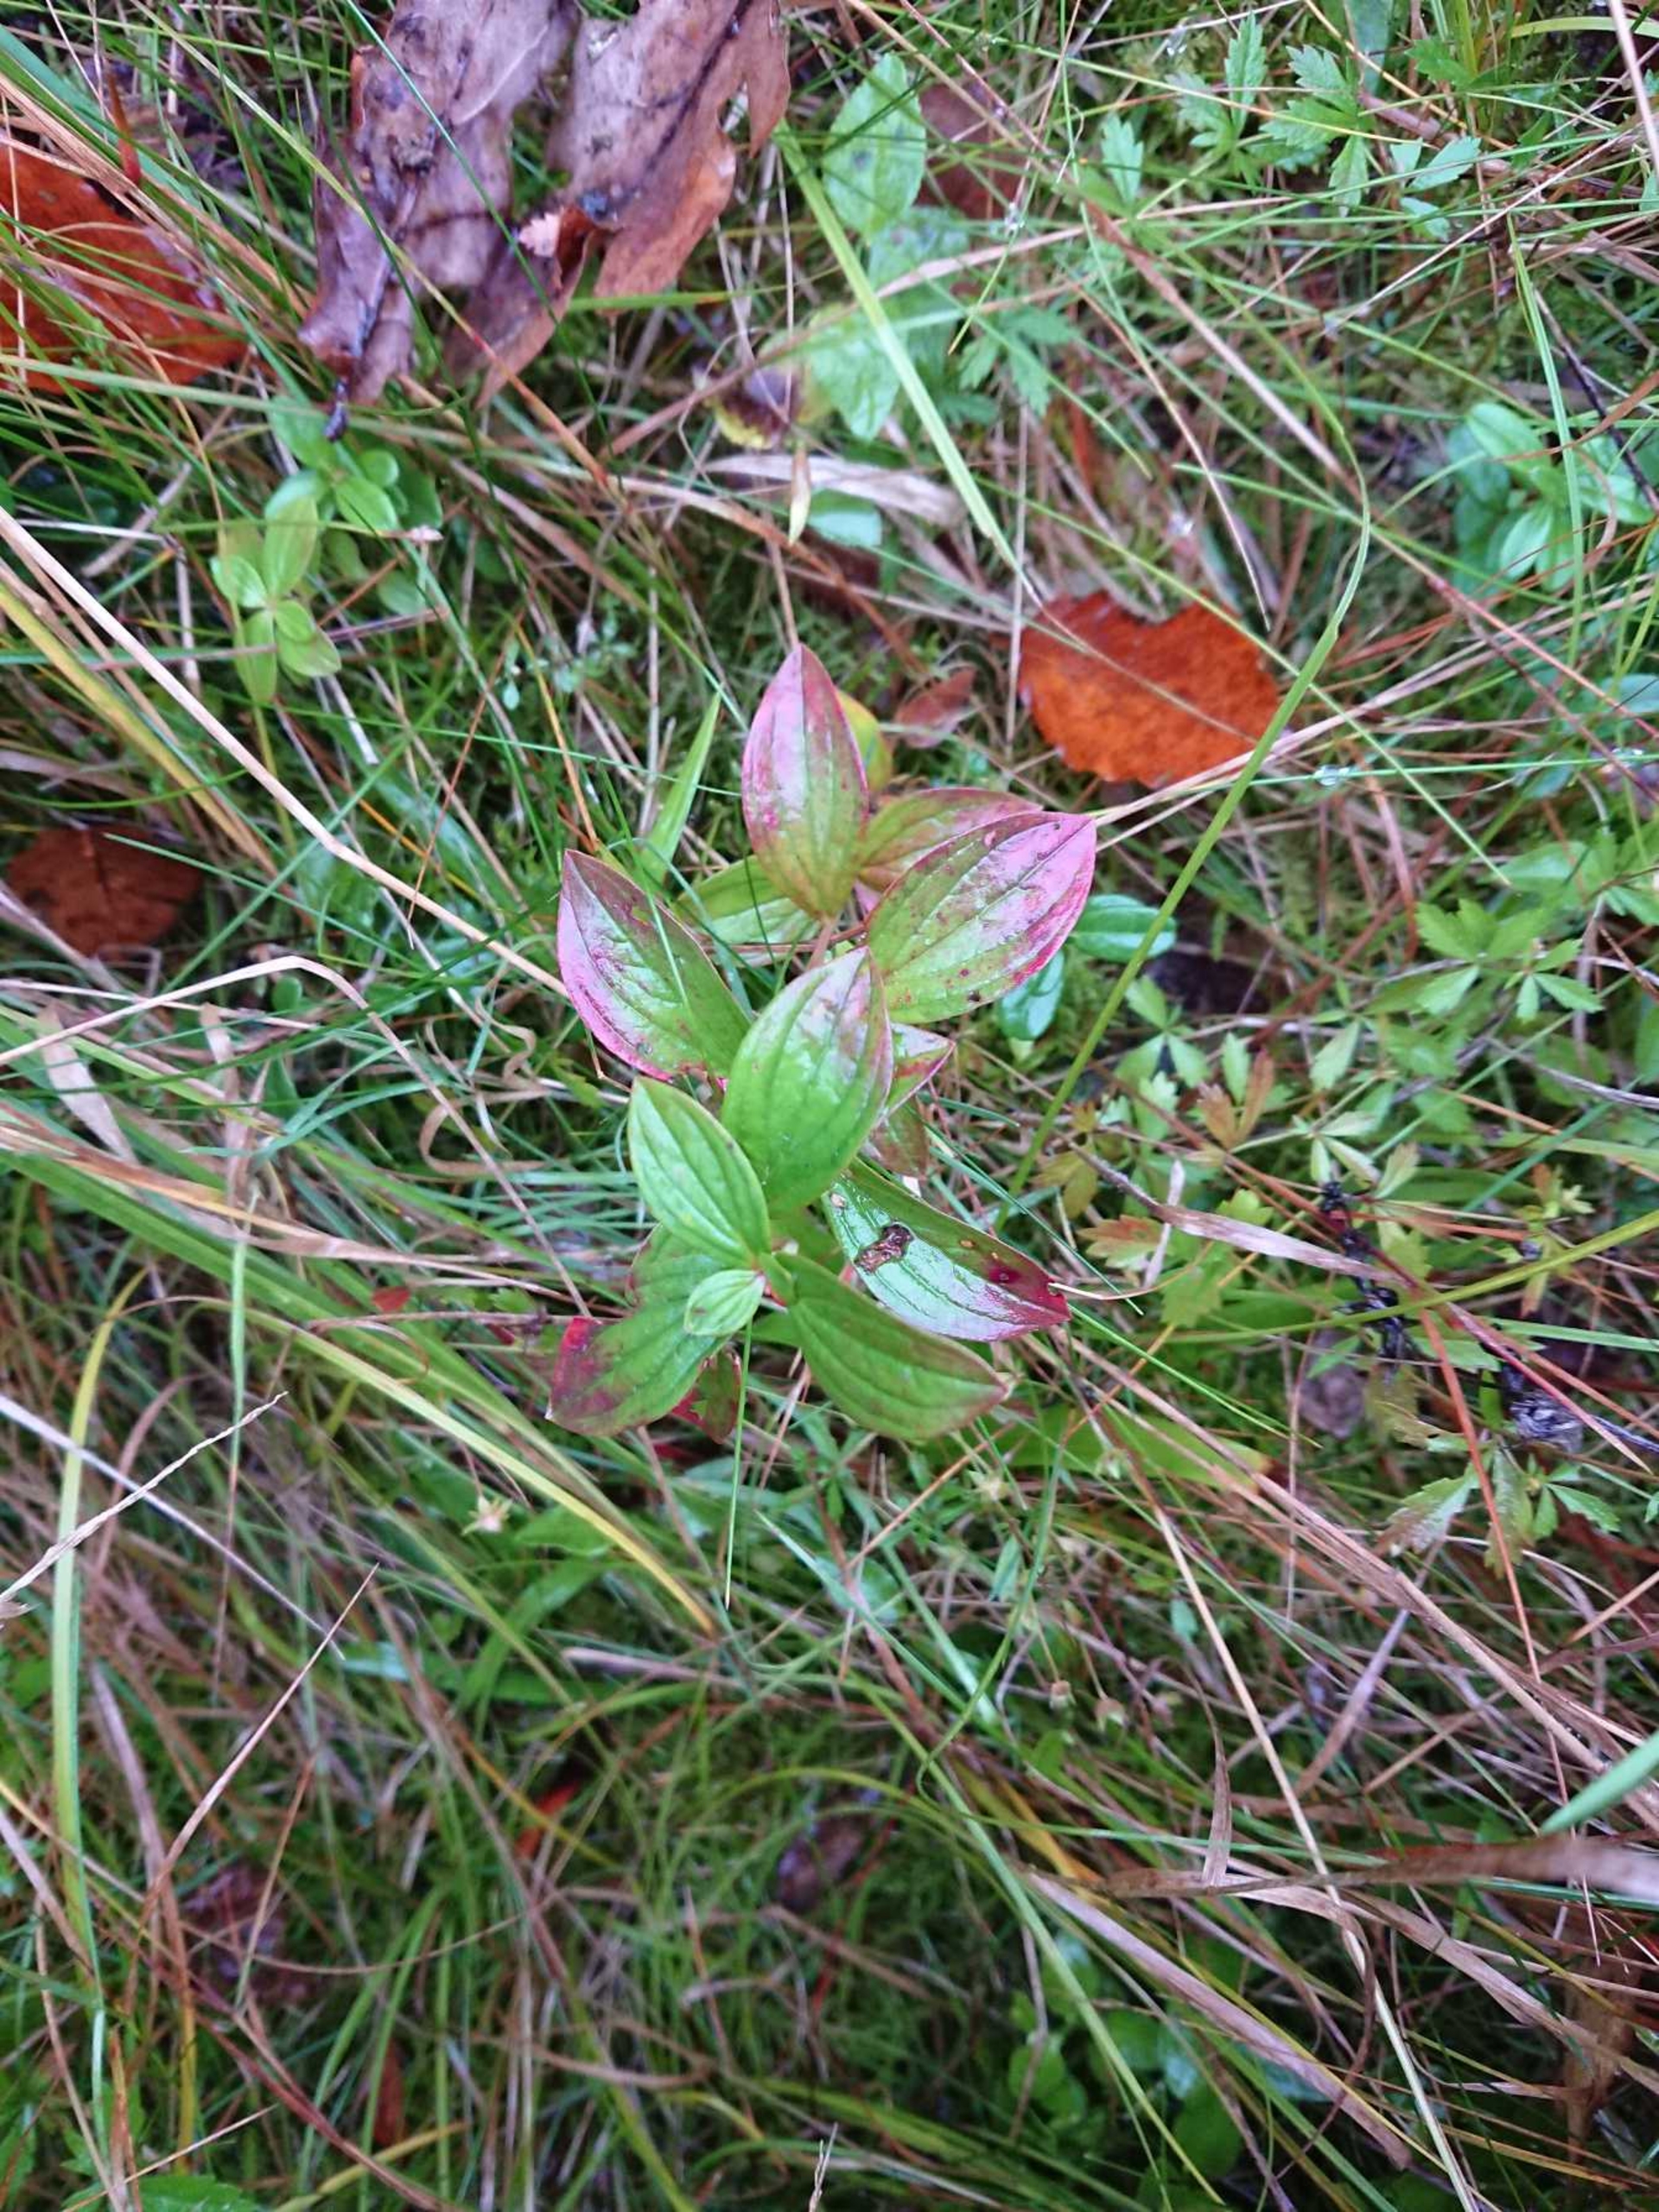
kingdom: Plantae
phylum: Tracheophyta
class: Magnoliopsida
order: Cornales
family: Cornaceae
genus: Cornus
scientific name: Cornus suecica
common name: Hønsebær
